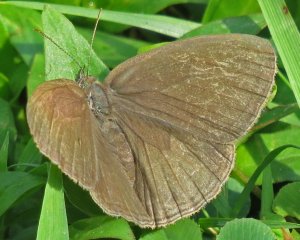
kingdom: Animalia
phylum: Arthropoda
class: Insecta
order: Lepidoptera
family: Nymphalidae
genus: Hermeuptychia
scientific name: Hermeuptychia hermes
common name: Carolina Satyr
